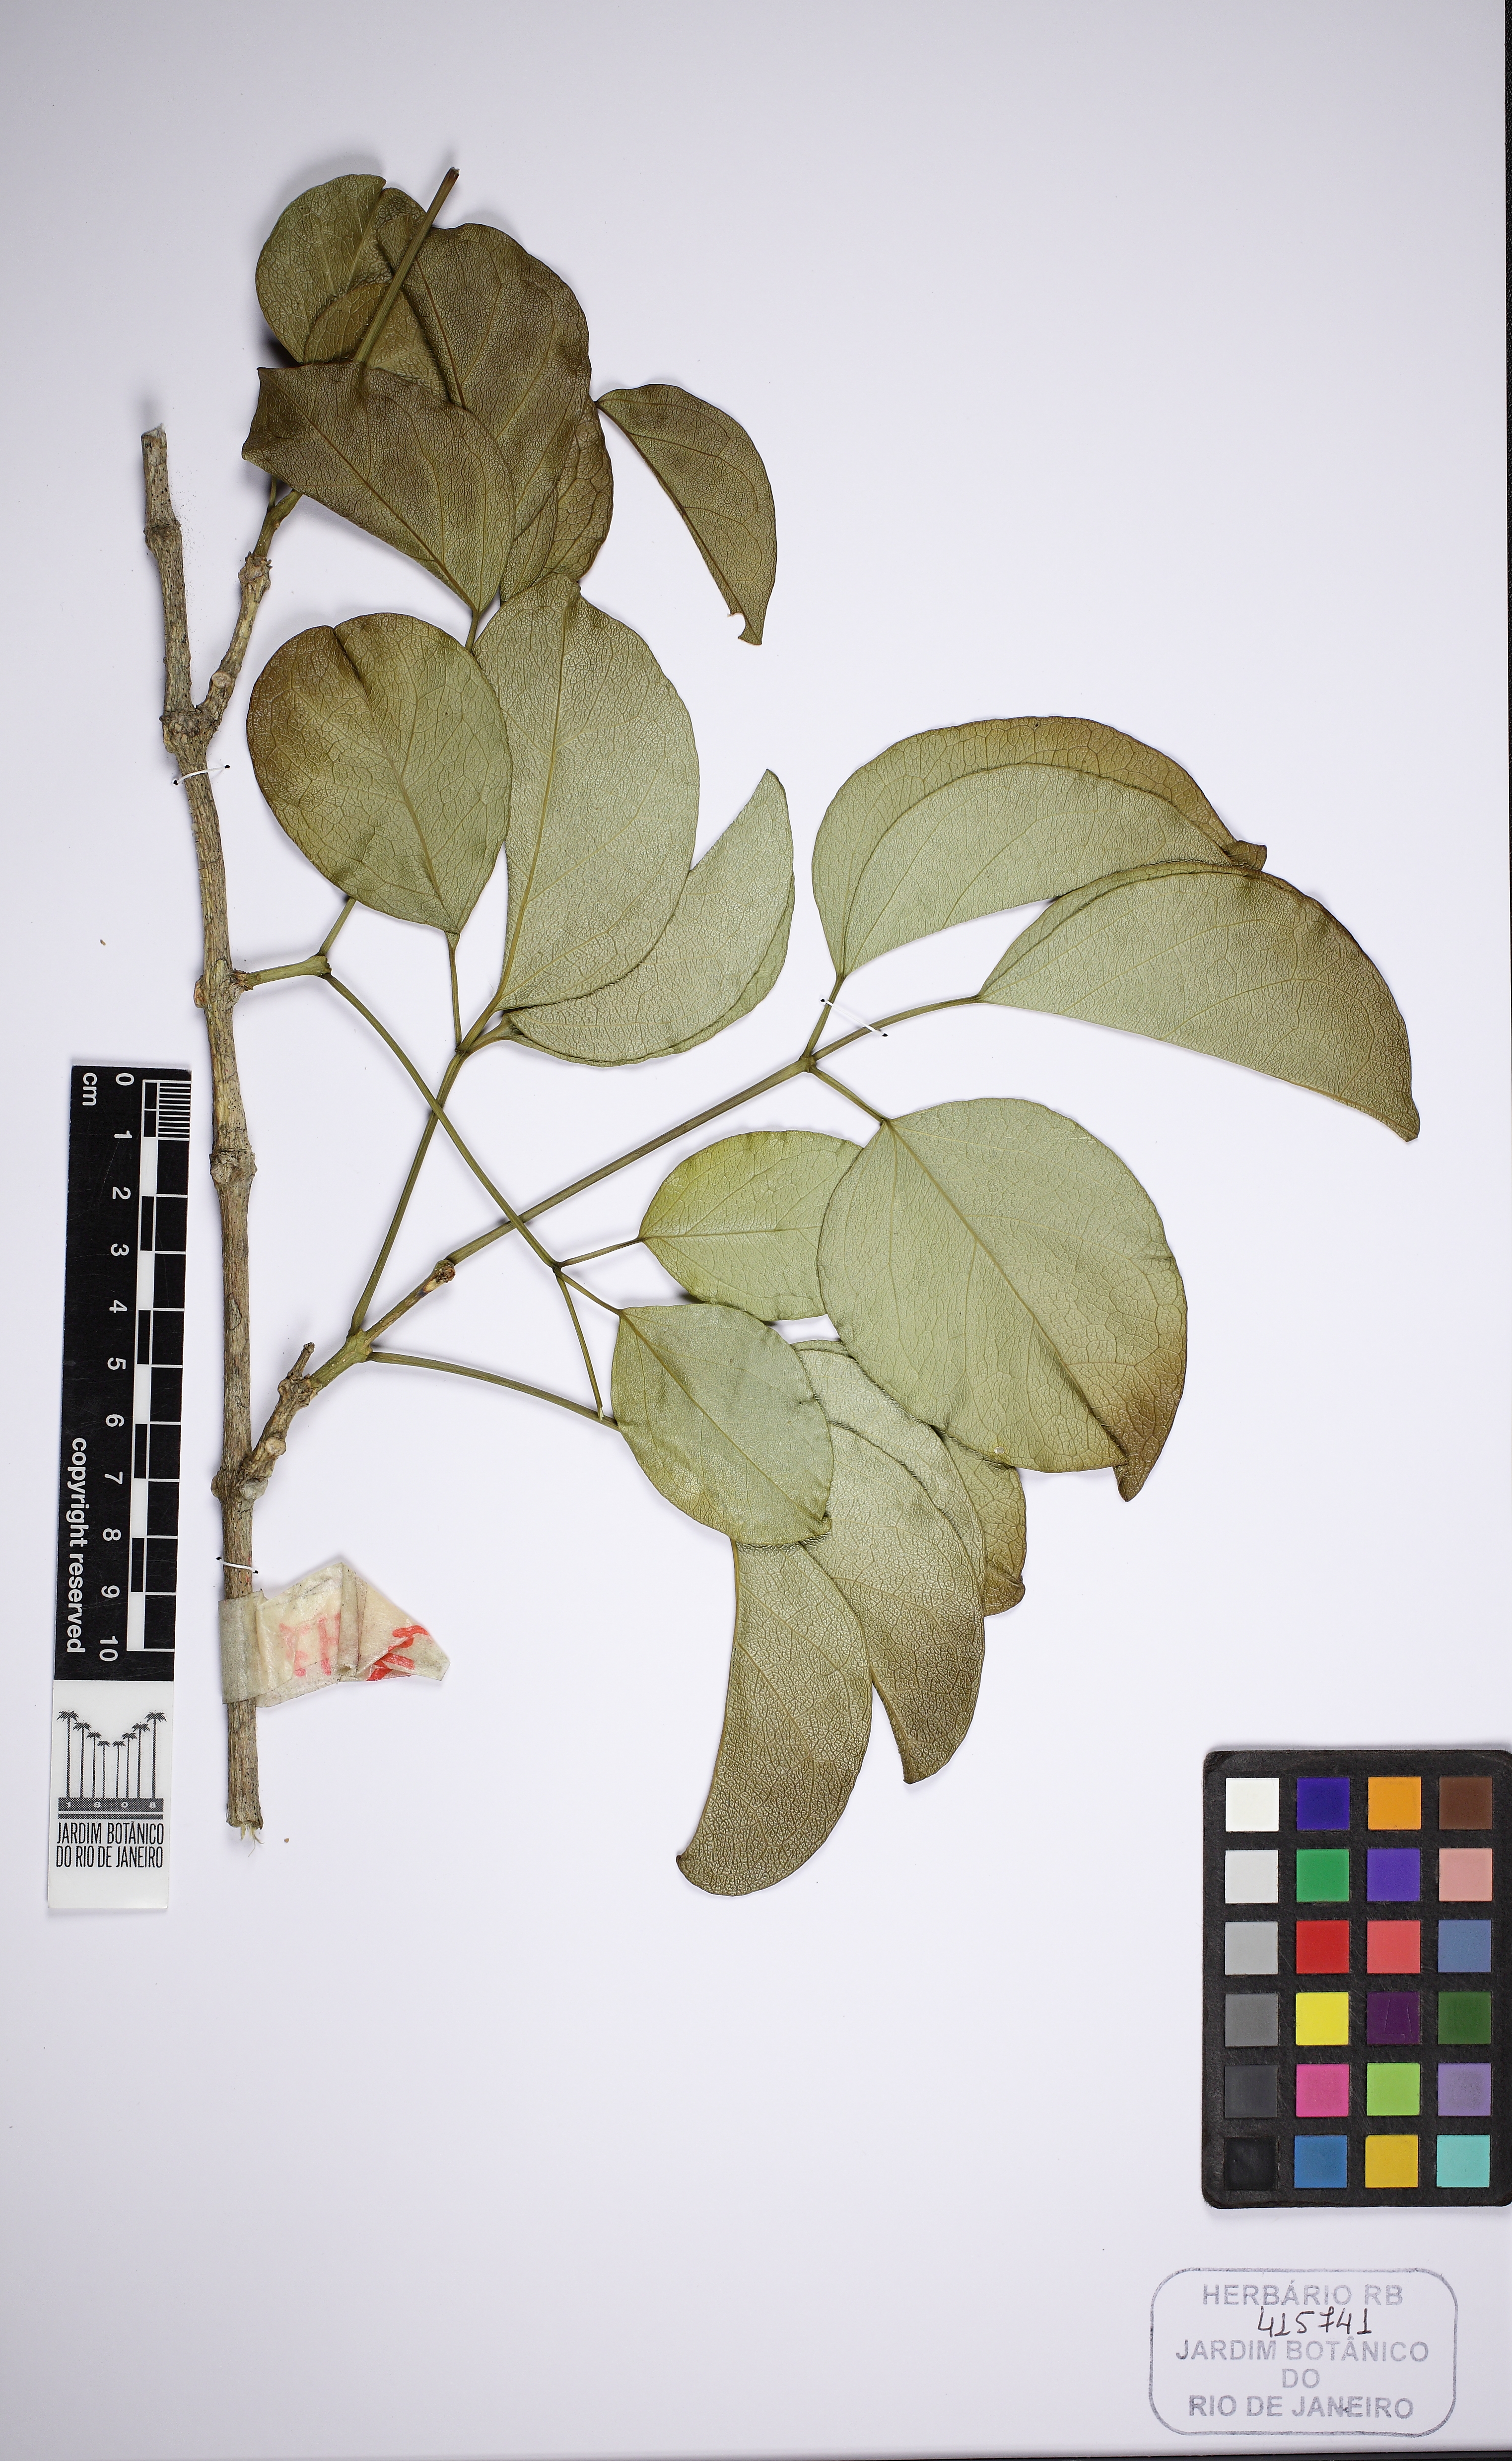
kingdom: Plantae
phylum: Tracheophyta
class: Magnoliopsida
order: Lamiales
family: Bignoniaceae
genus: Fridericia
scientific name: Fridericia conjugata
